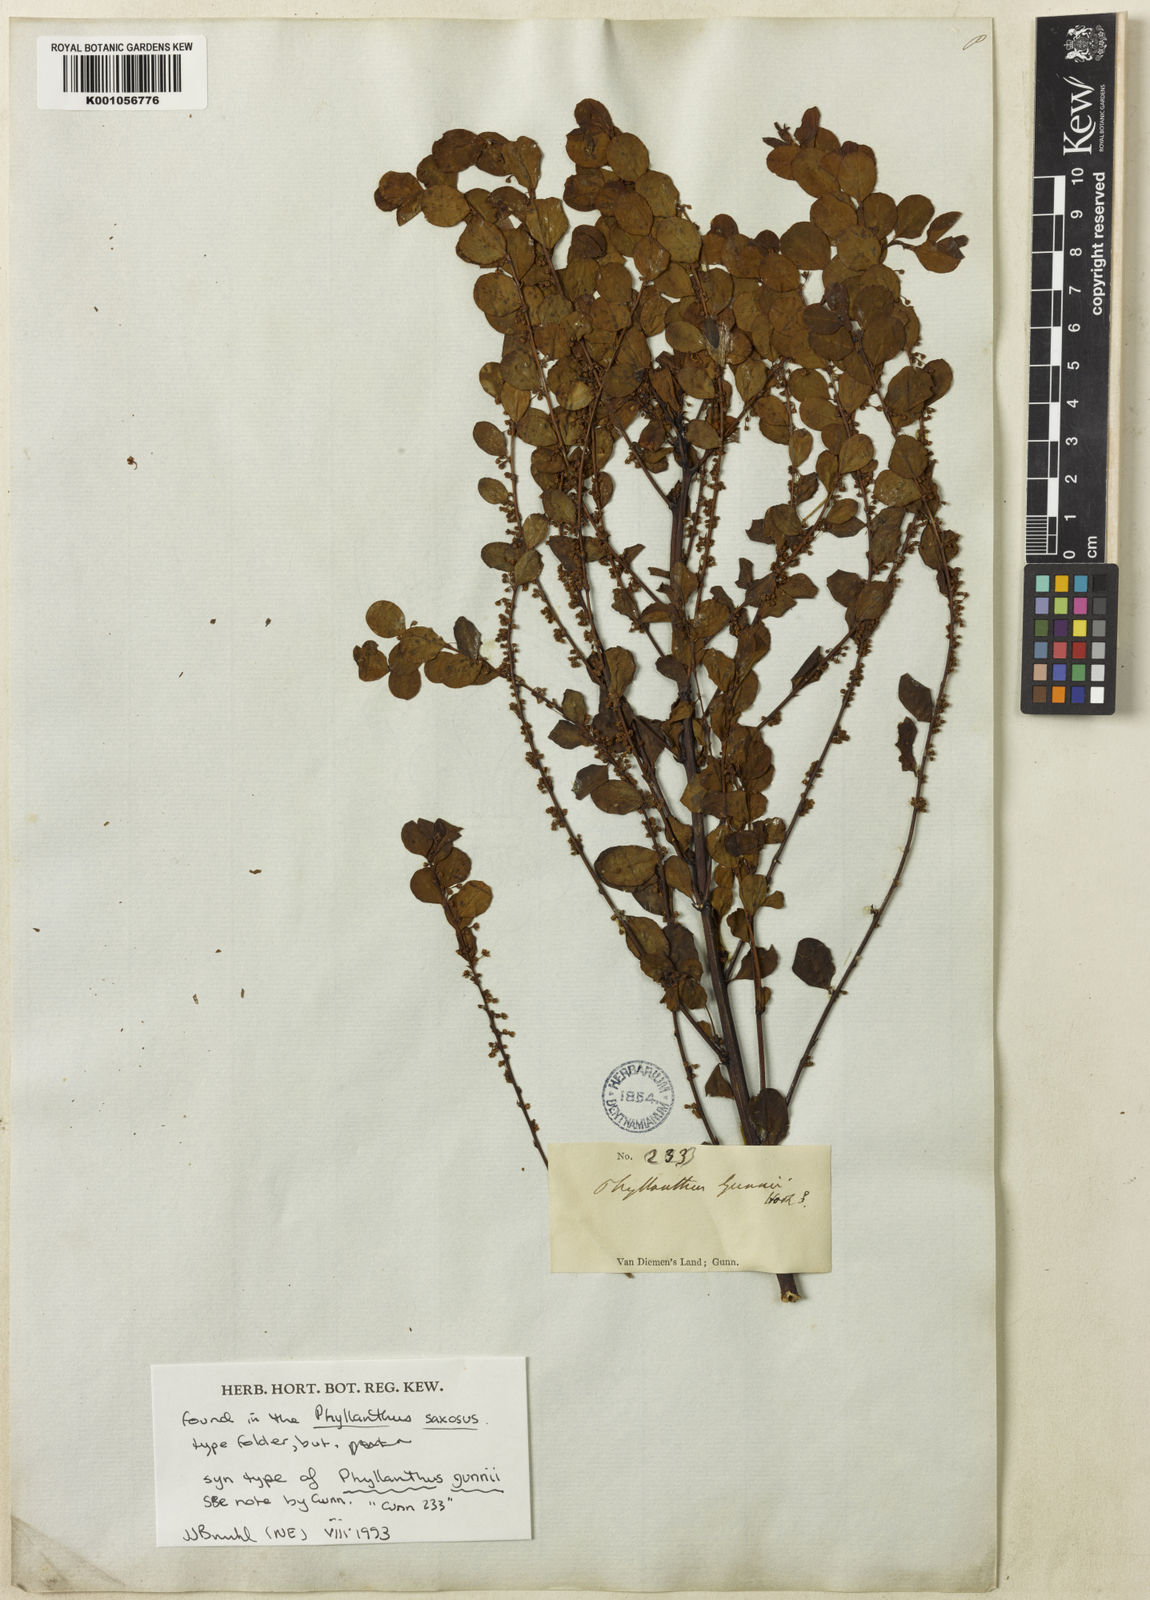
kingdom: Plantae
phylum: Tracheophyta
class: Magnoliopsida
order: Malpighiales
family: Phyllanthaceae
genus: Phyllanthus
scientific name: Phyllanthus gunnii
